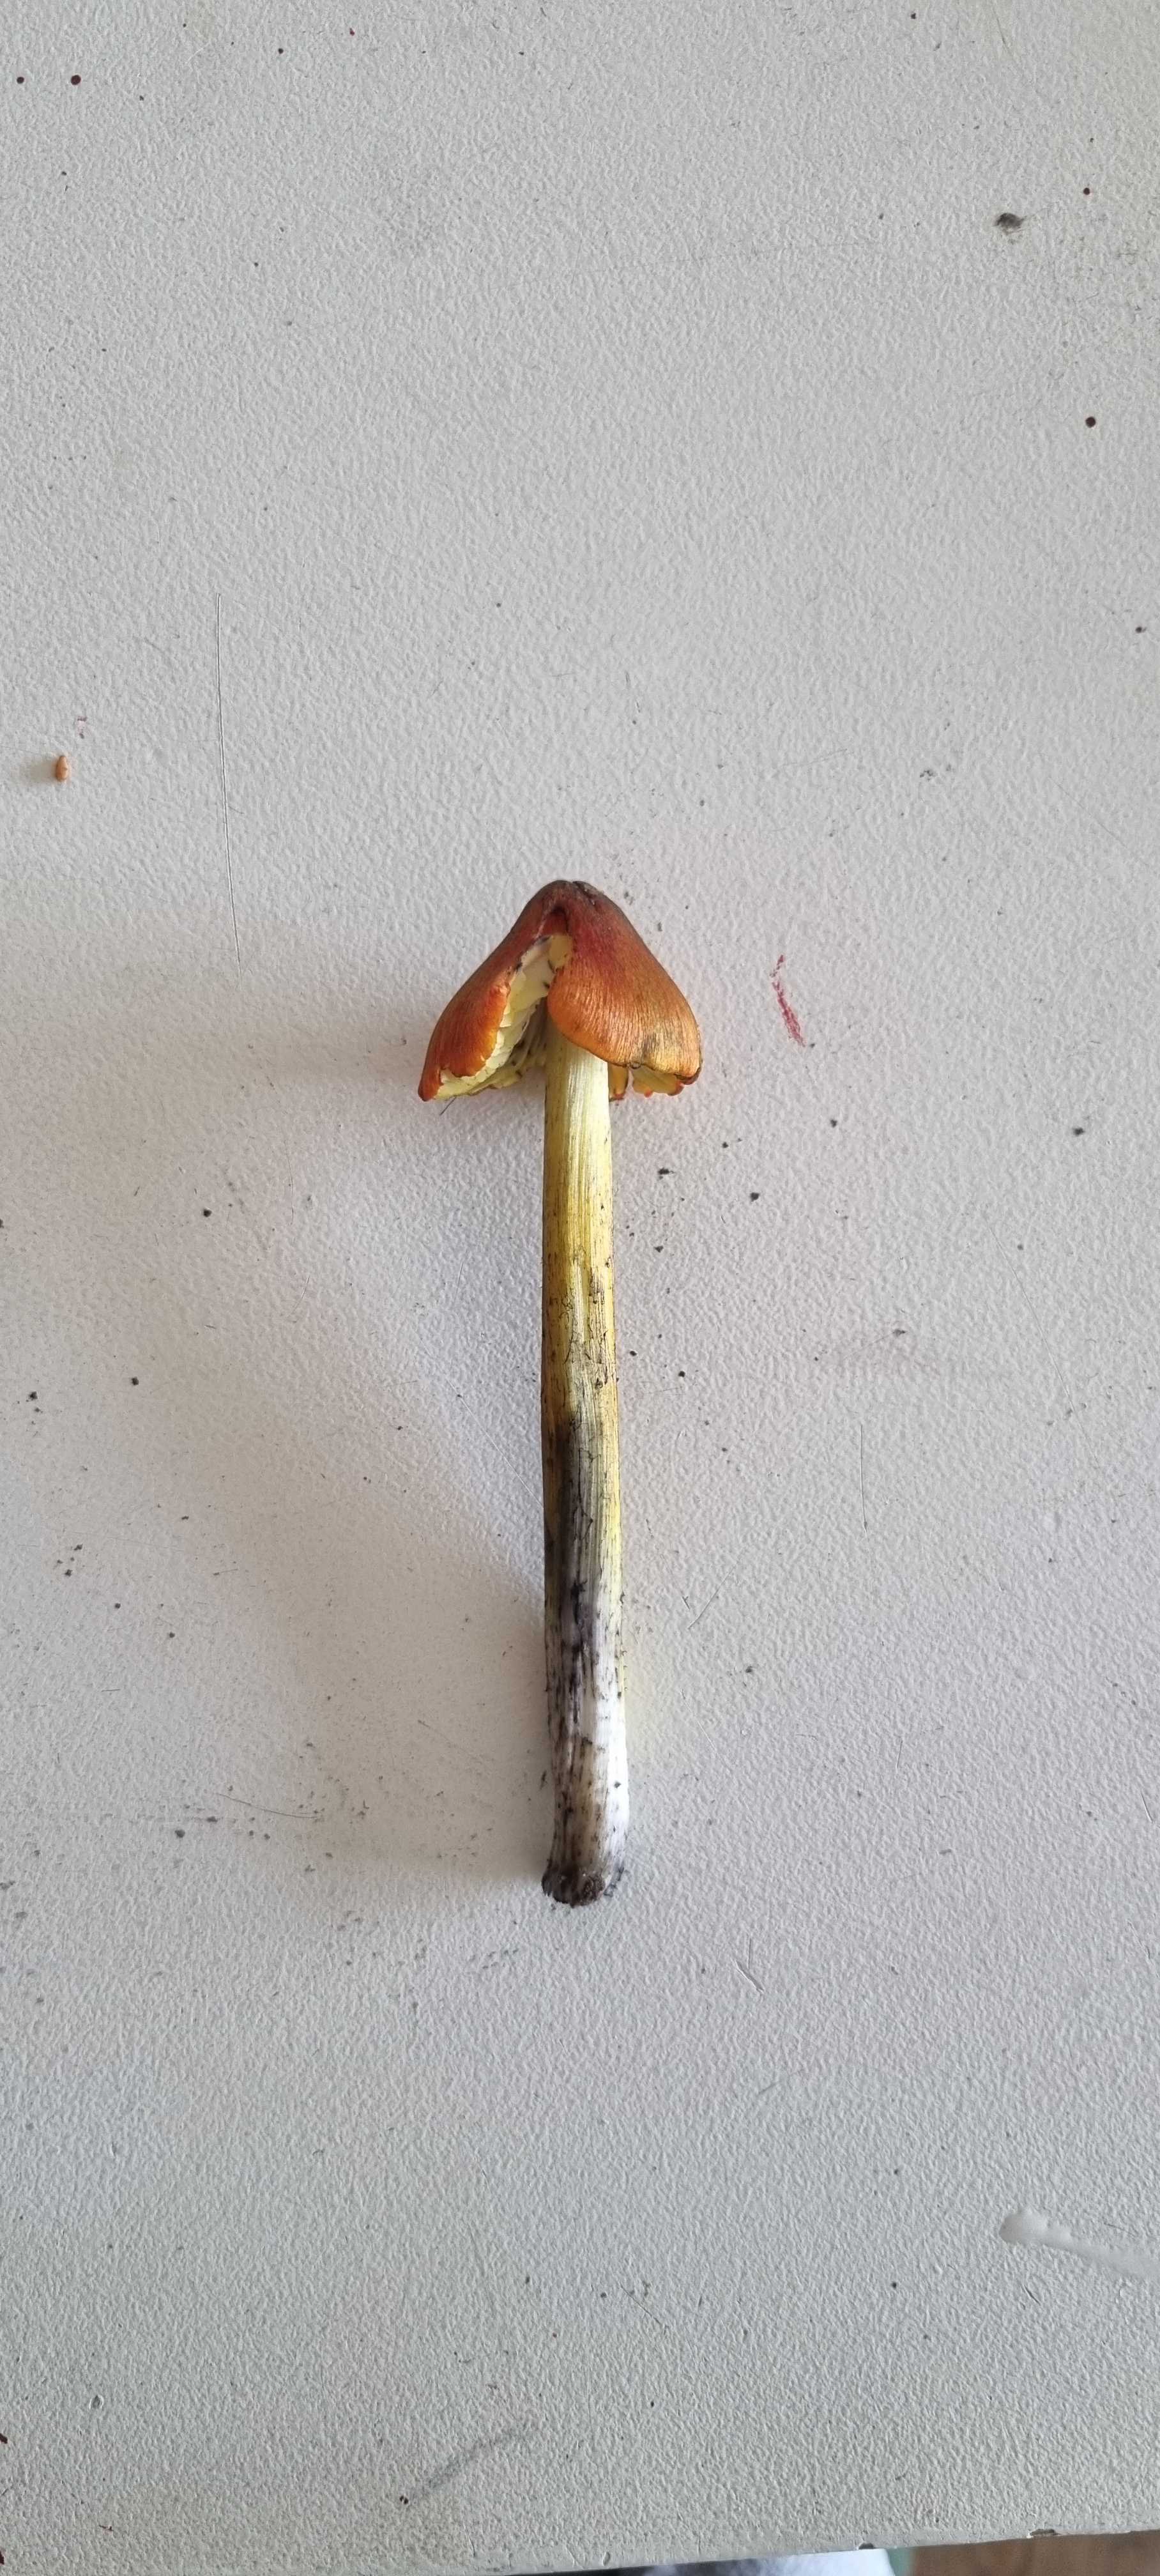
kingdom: Fungi
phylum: Basidiomycota
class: Agaricomycetes
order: Agaricales
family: Hygrophoraceae
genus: Hygrocybe
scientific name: Hygrocybe conica
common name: kegle-vokshat
